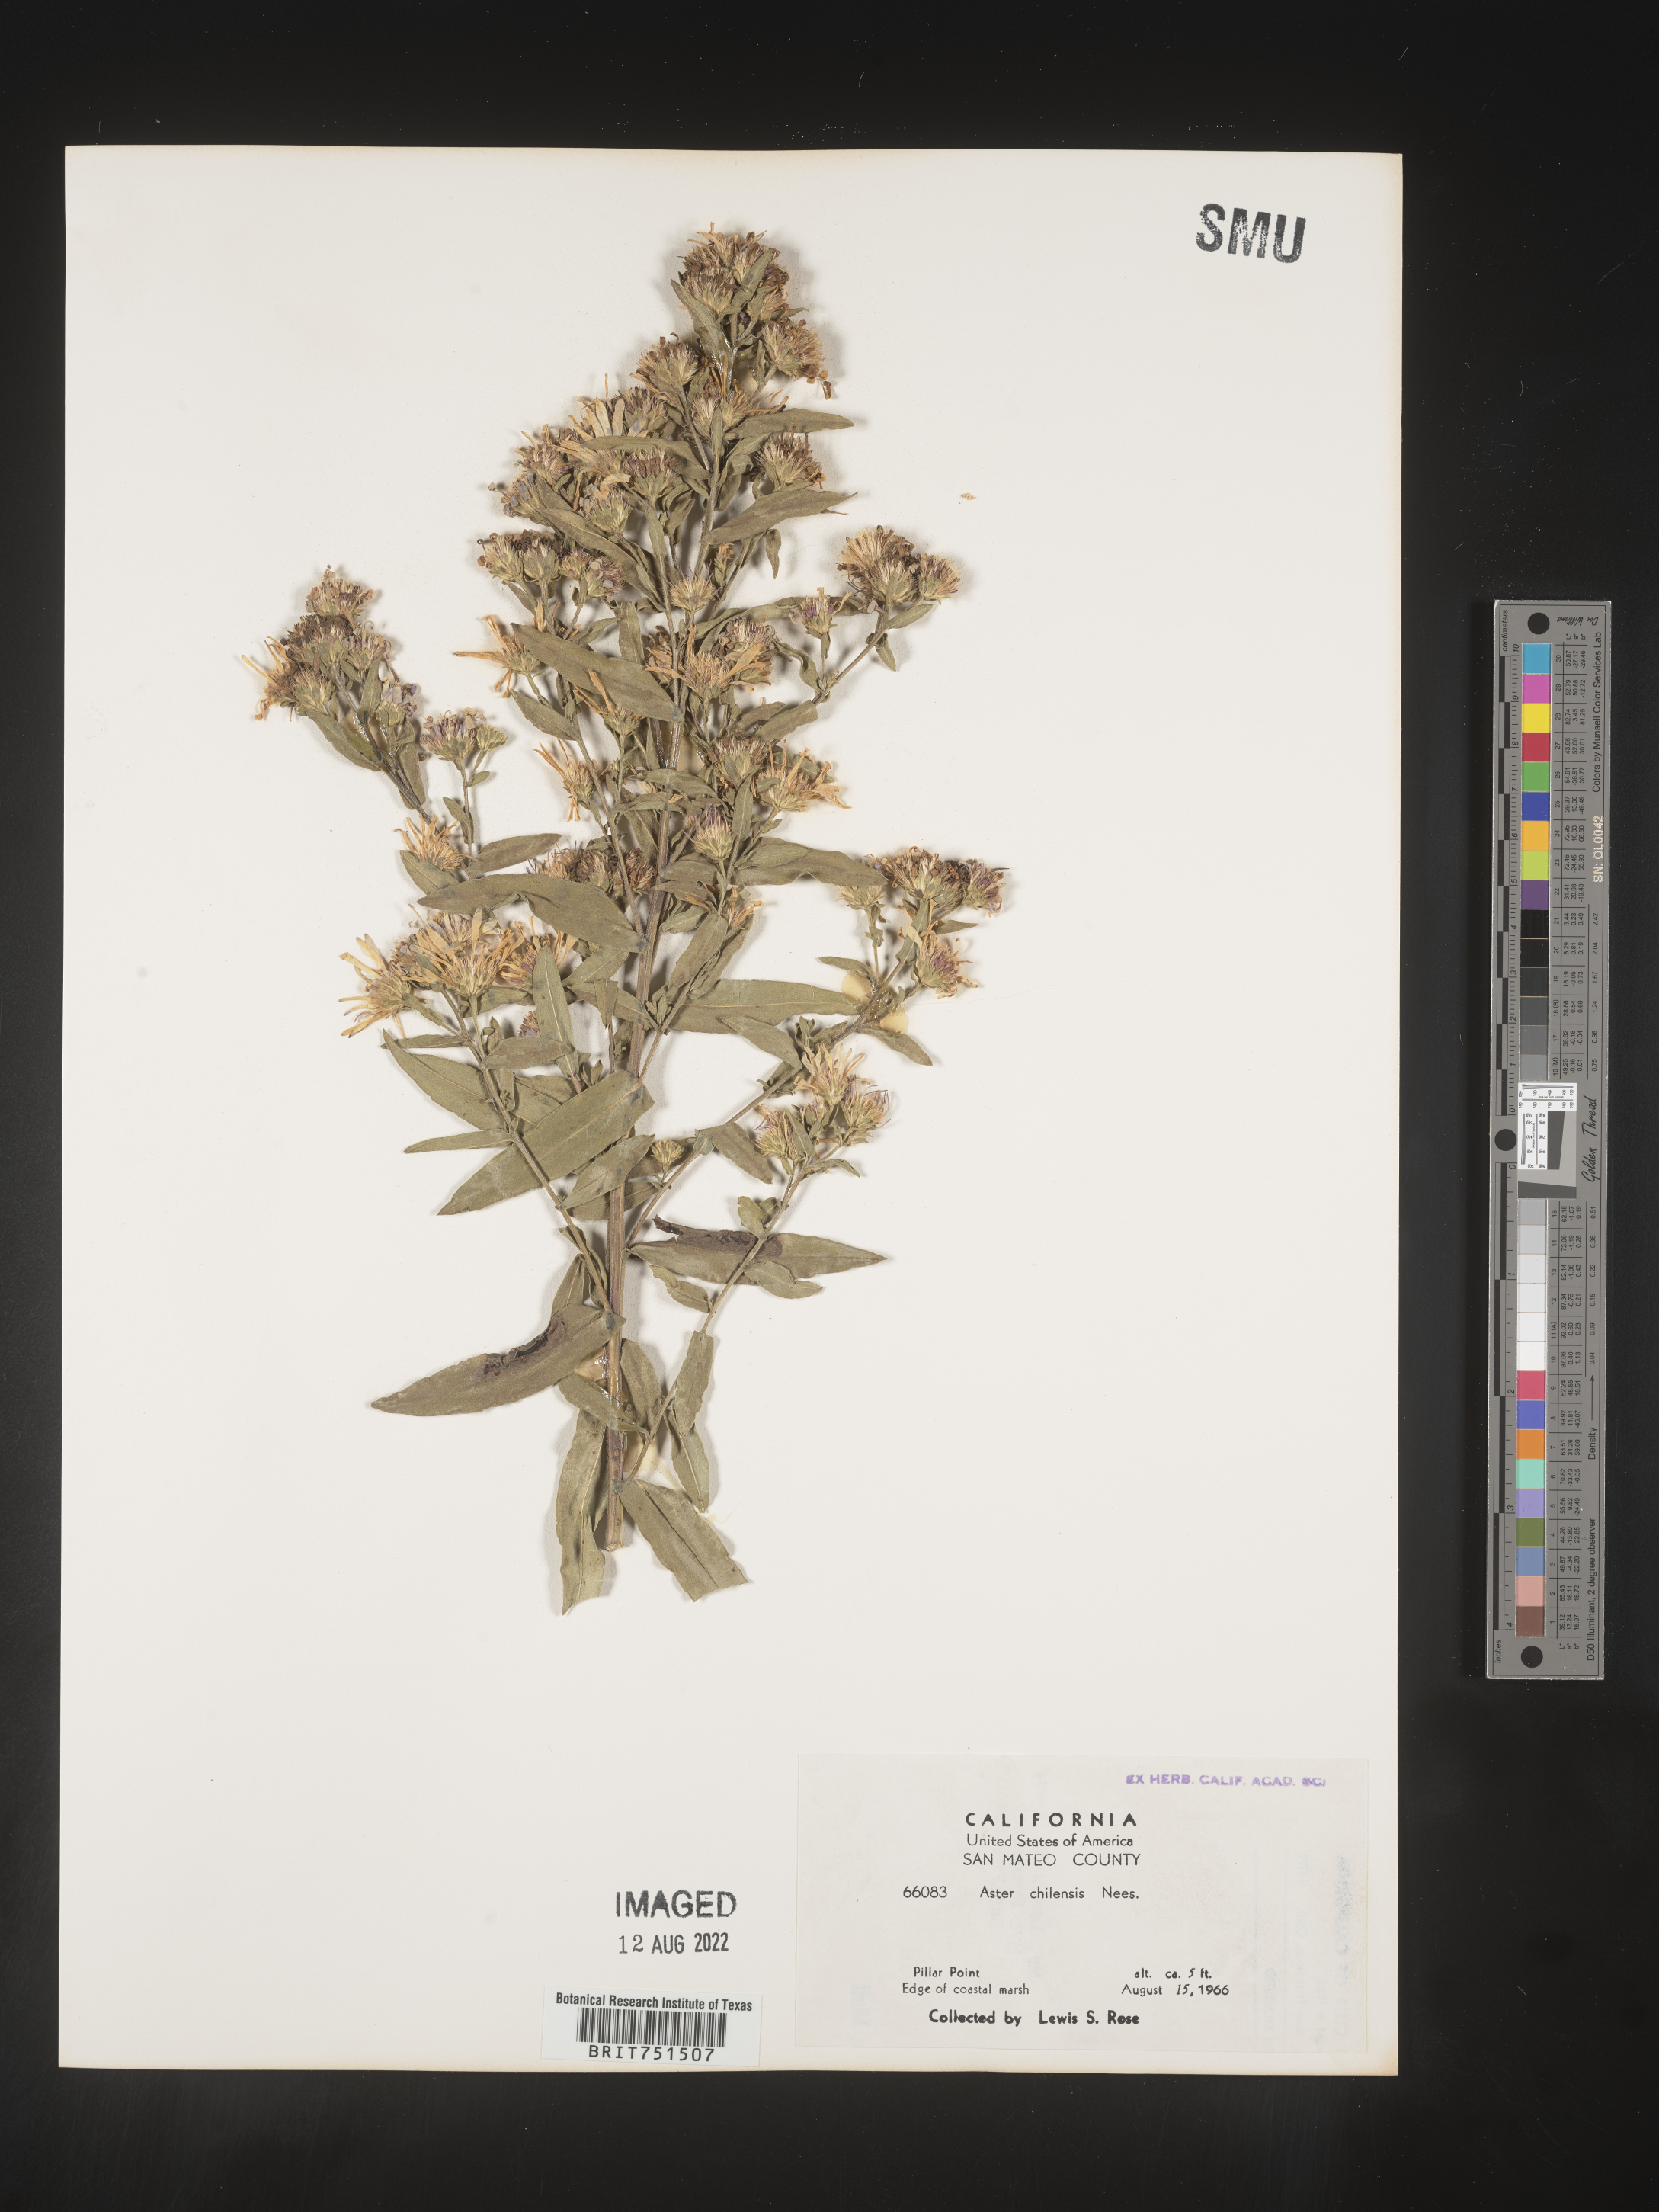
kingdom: Plantae
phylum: Tracheophyta
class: Magnoliopsida
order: Asterales
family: Asteraceae
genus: Symphyotrichum
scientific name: Symphyotrichum chilense
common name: Pacific aster
